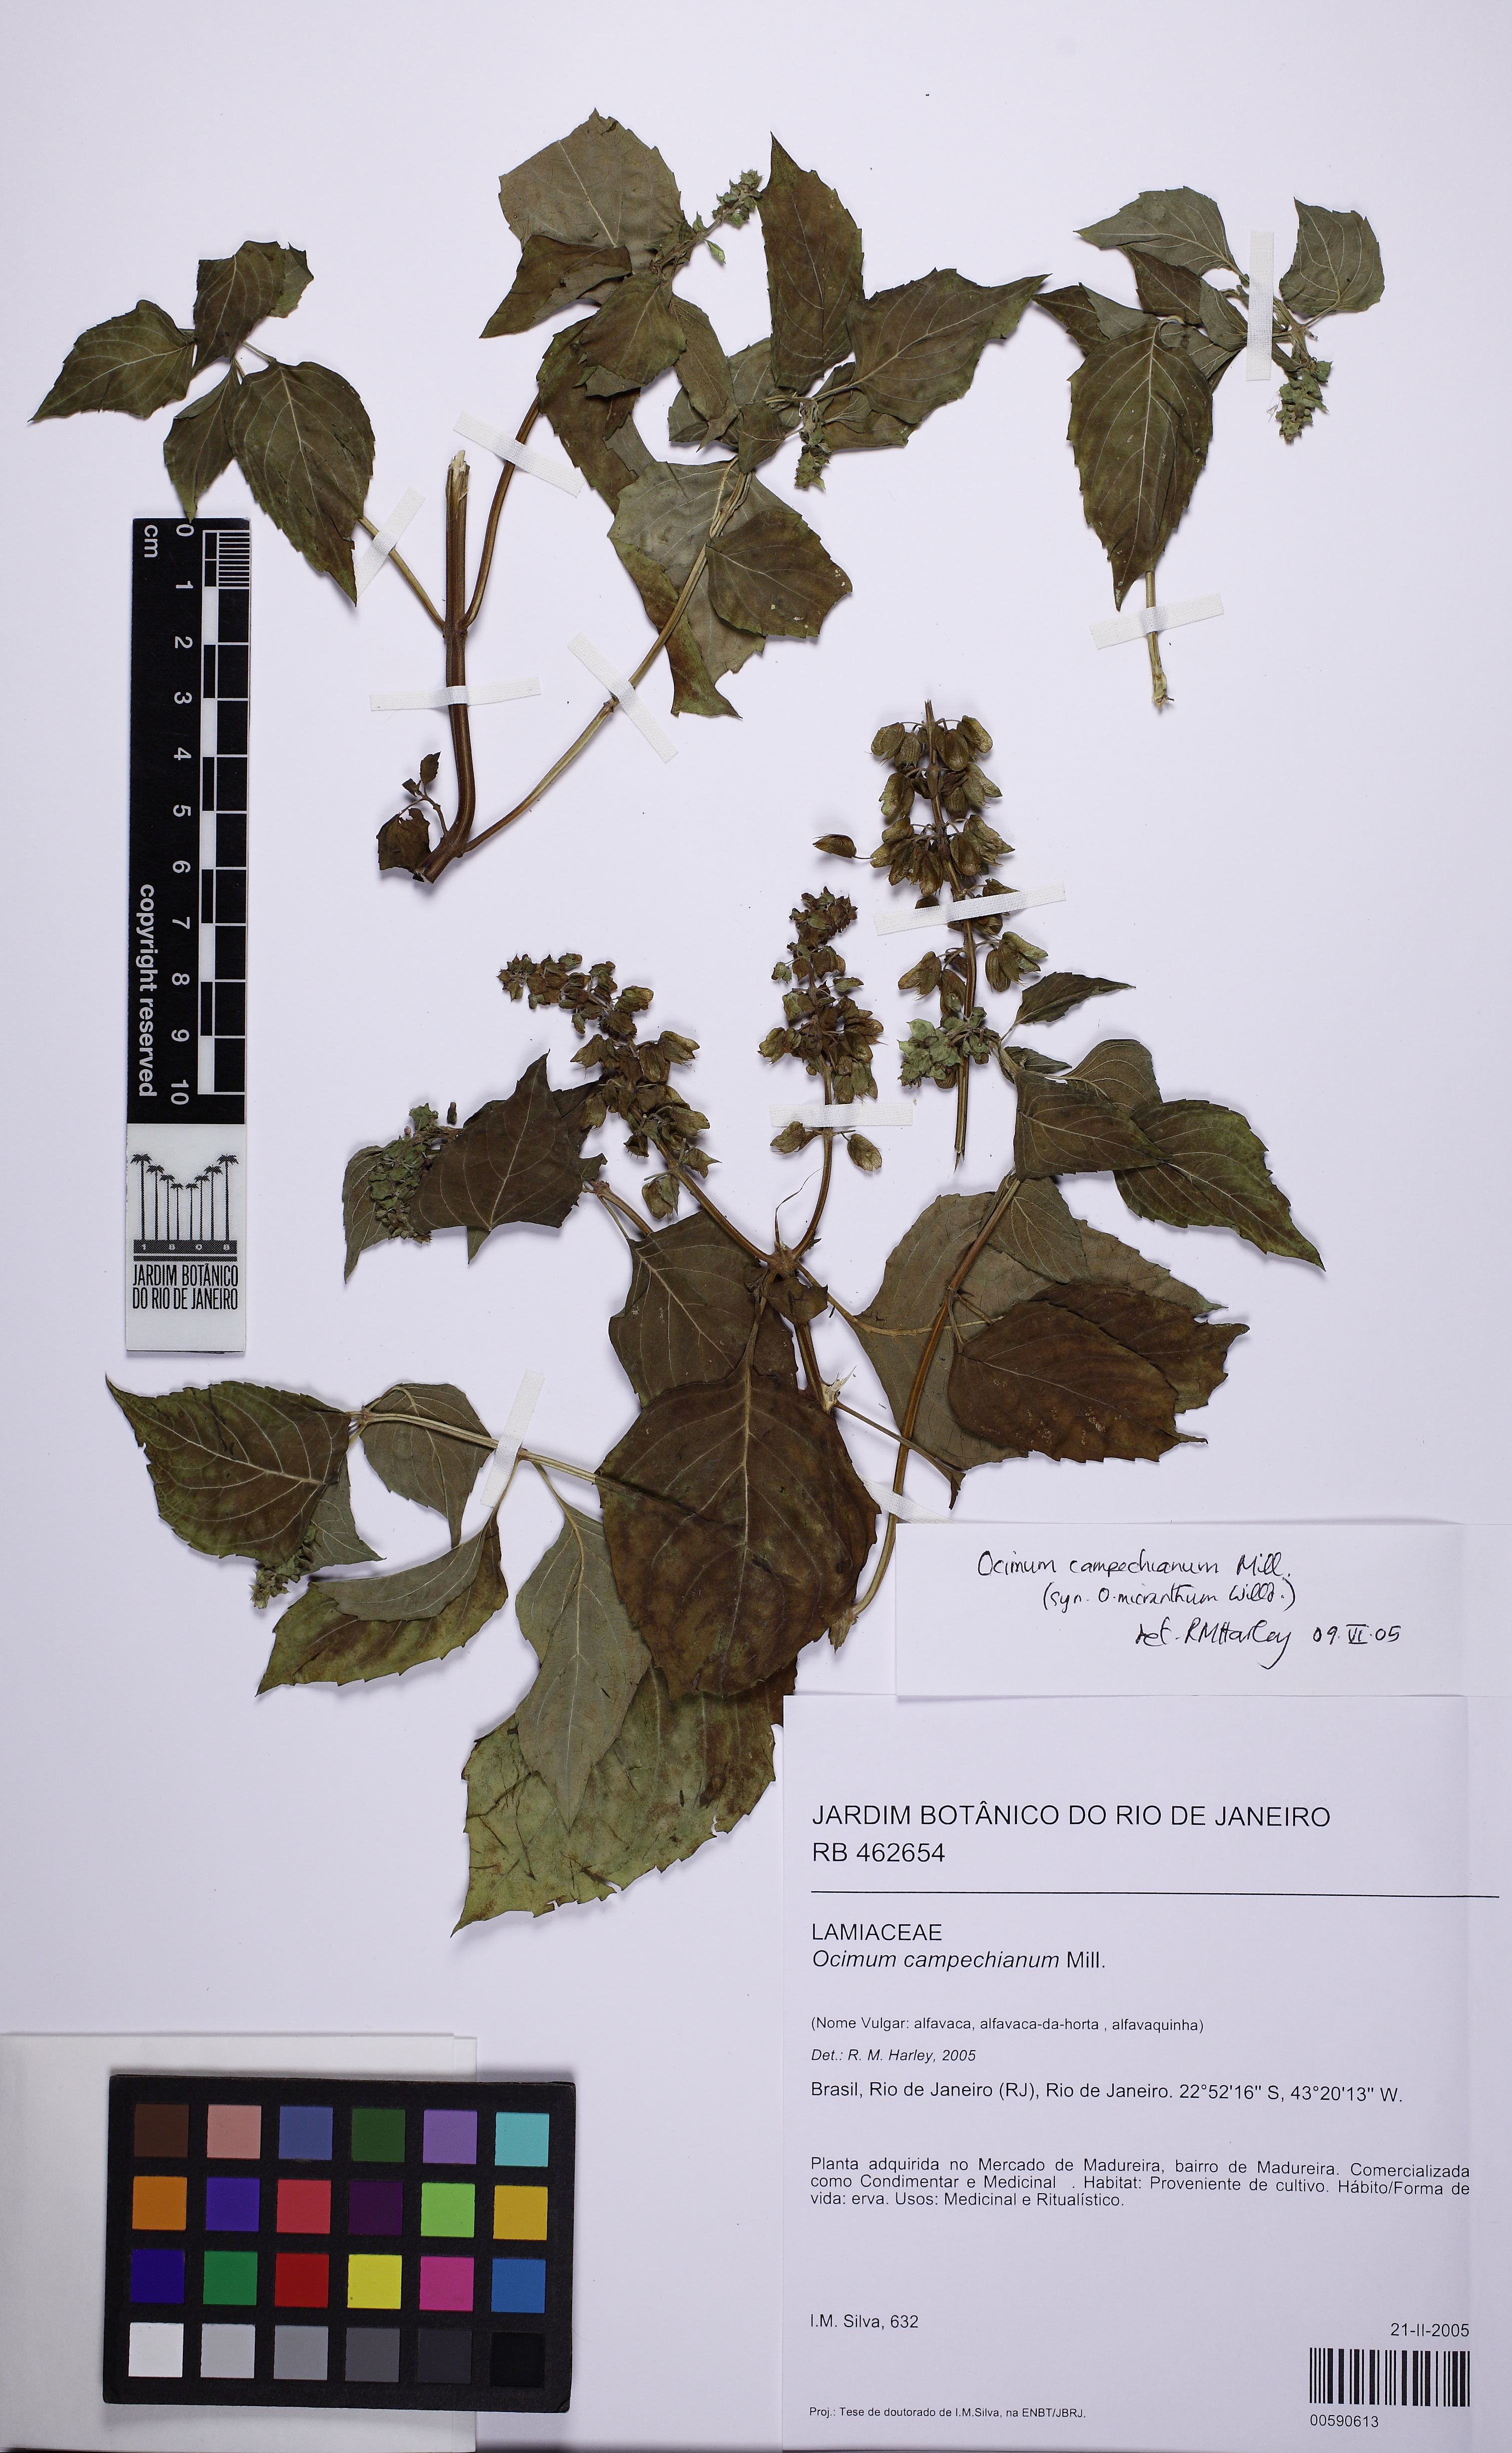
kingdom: Plantae
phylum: Tracheophyta
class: Magnoliopsida
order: Lamiales
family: Lamiaceae
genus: Ocimum
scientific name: Ocimum campechianum
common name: Mosquito basil
